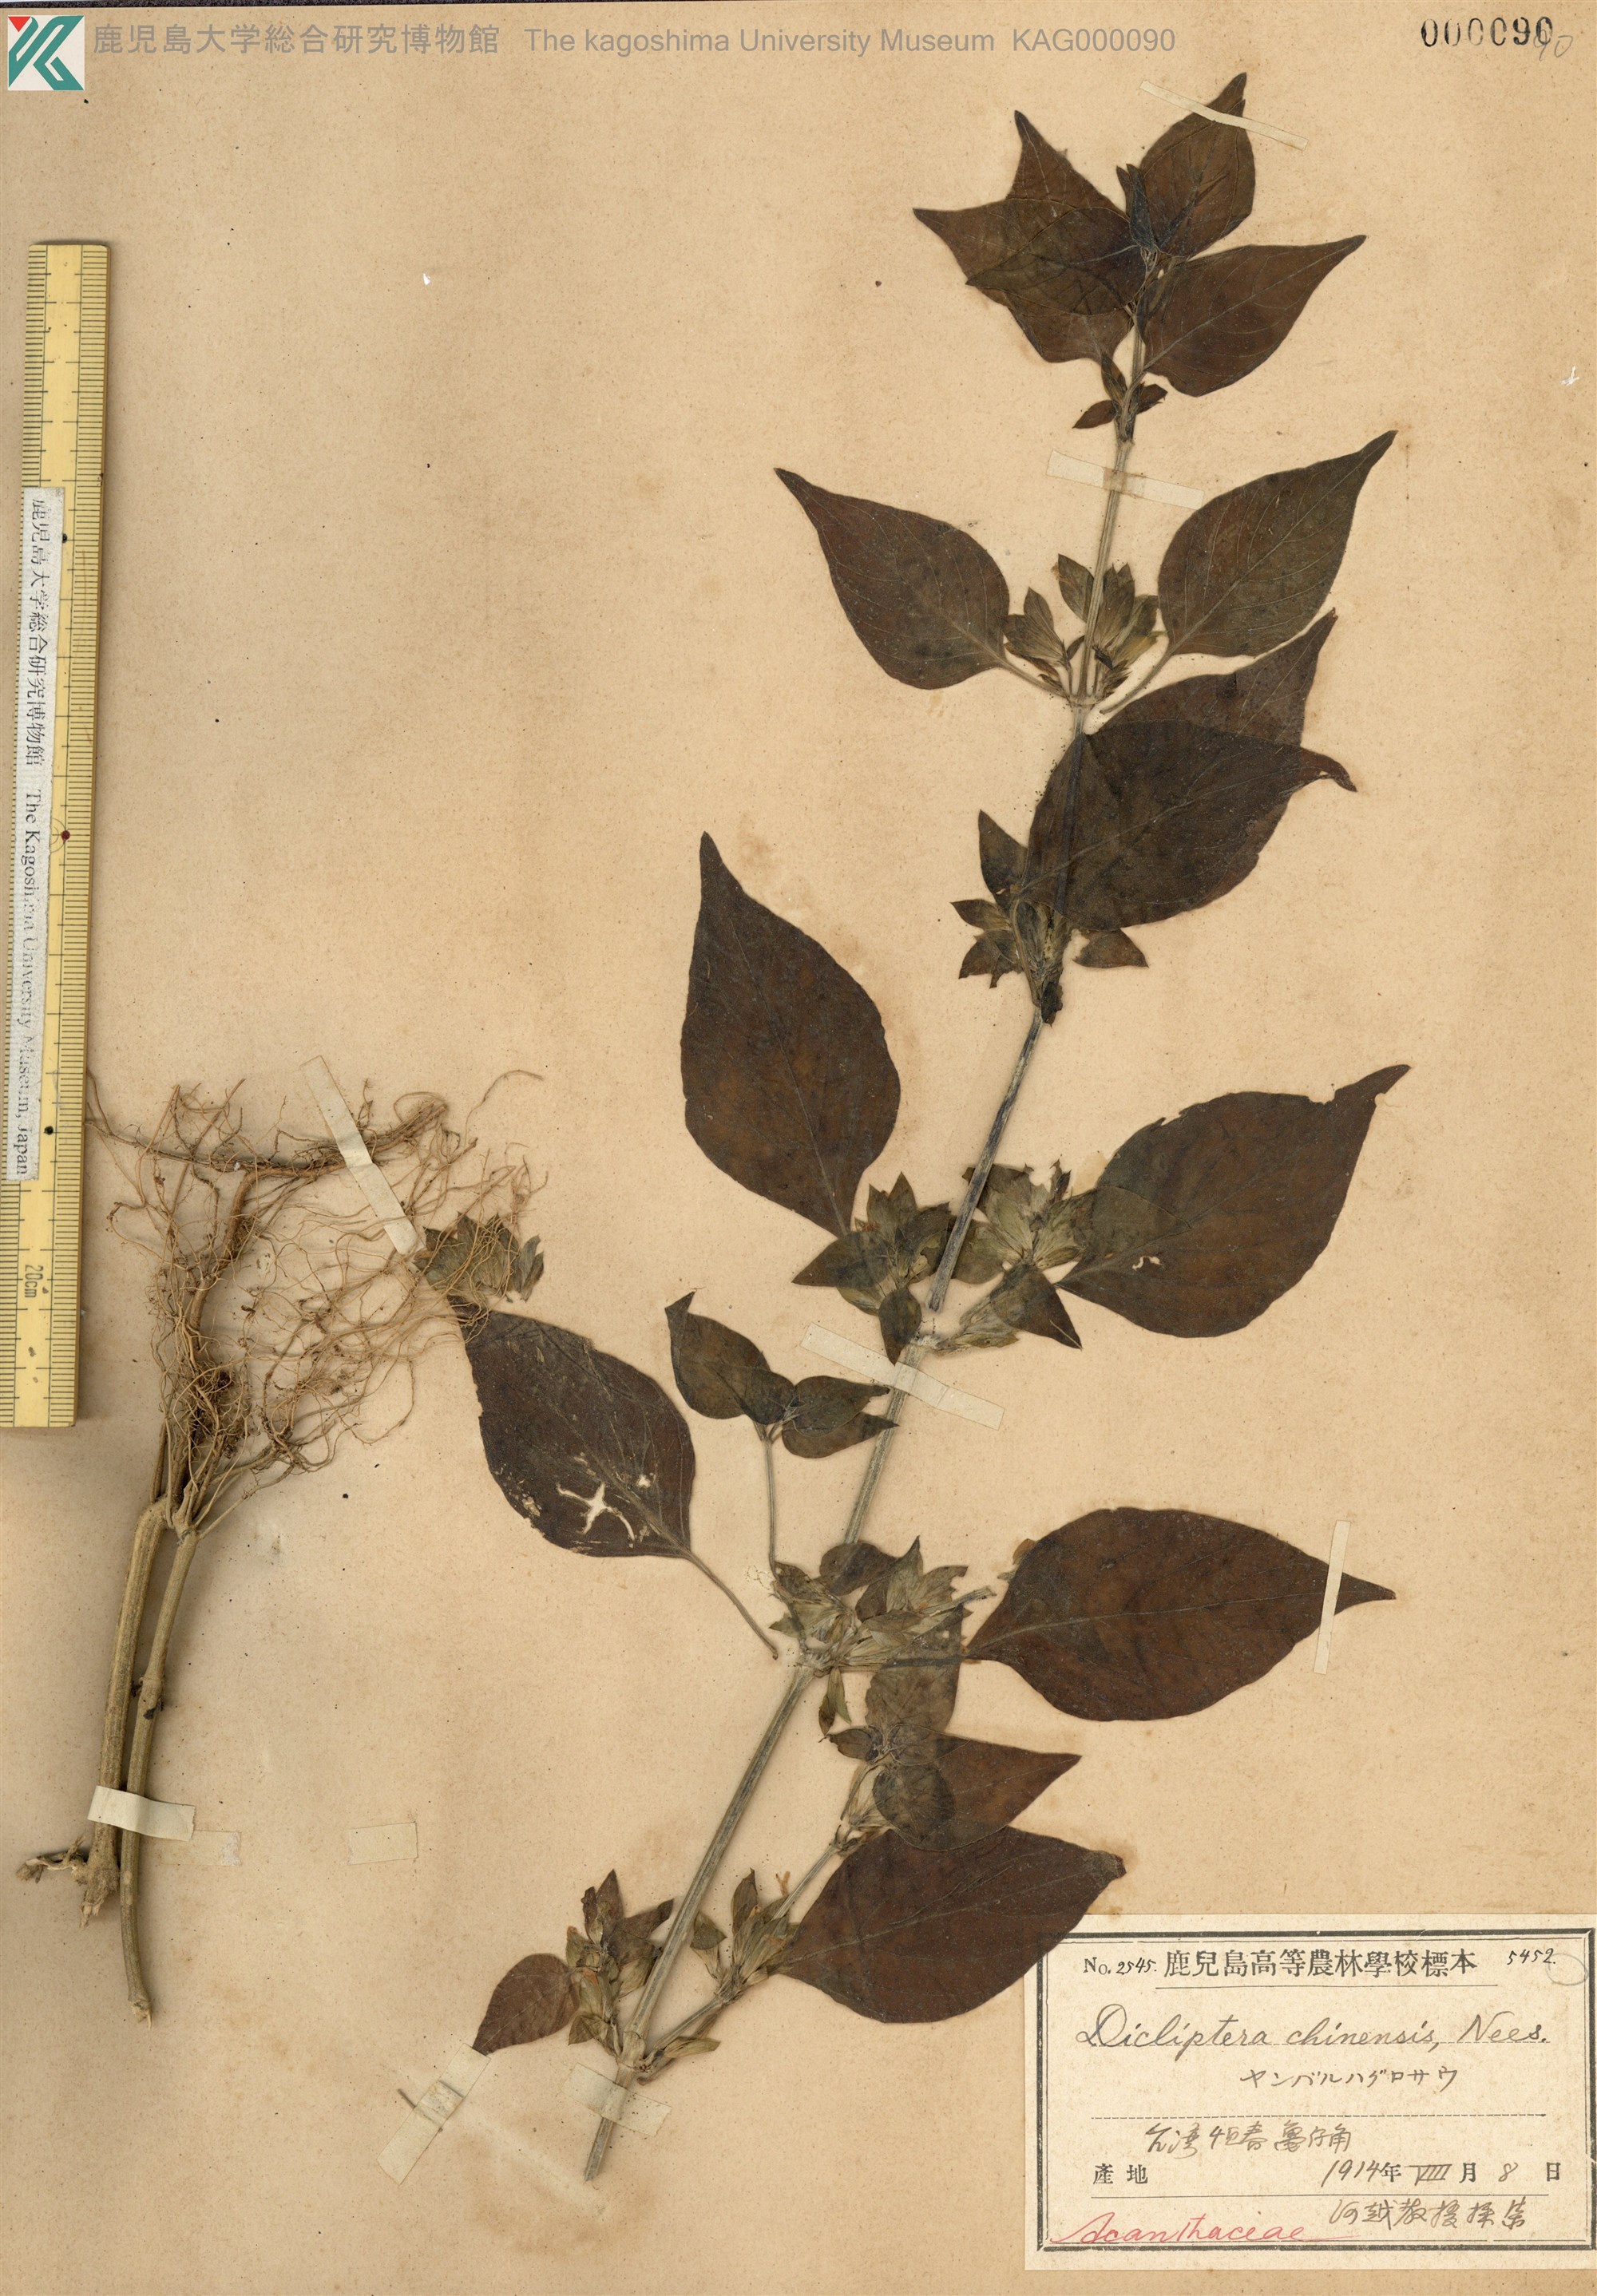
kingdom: Plantae
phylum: Tracheophyta
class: Magnoliopsida
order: Lamiales
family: Acanthaceae
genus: Dicliptera
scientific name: Dicliptera chinensis
